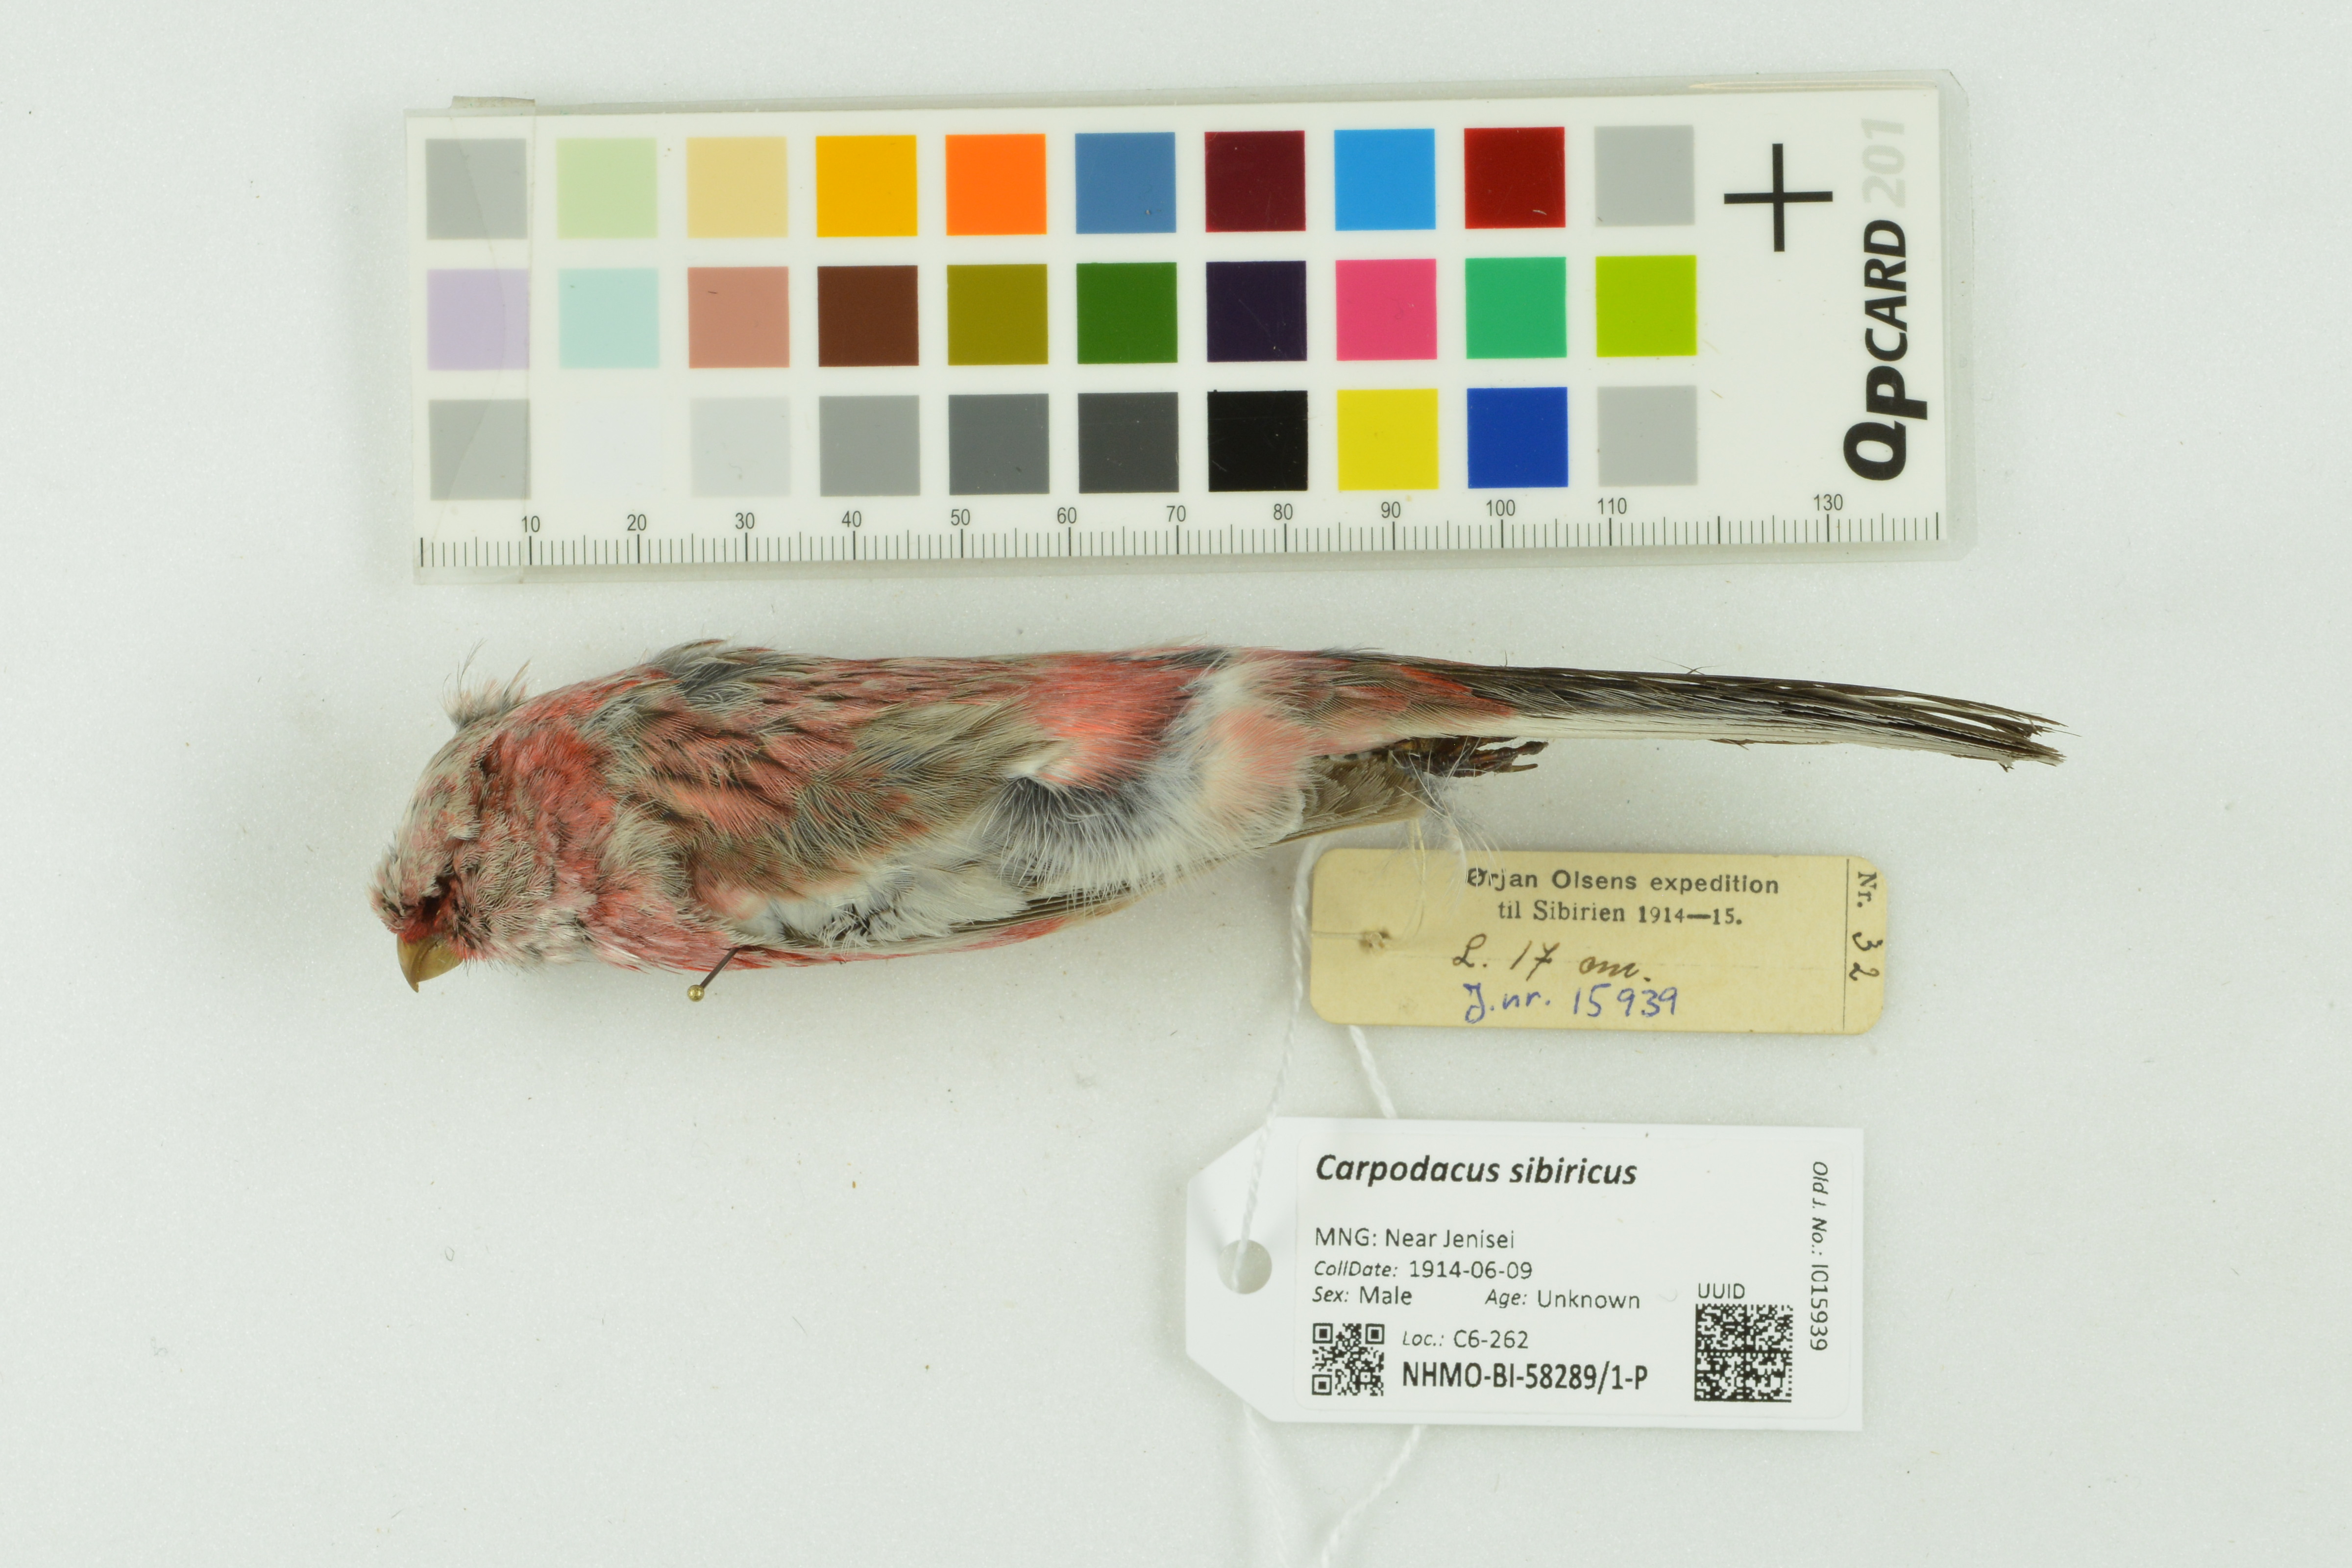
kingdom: Animalia
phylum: Chordata
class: Aves
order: Passeriformes
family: Fringillidae
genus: Carpodacus
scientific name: Carpodacus sibiricus
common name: Long-tailed rosefinch
